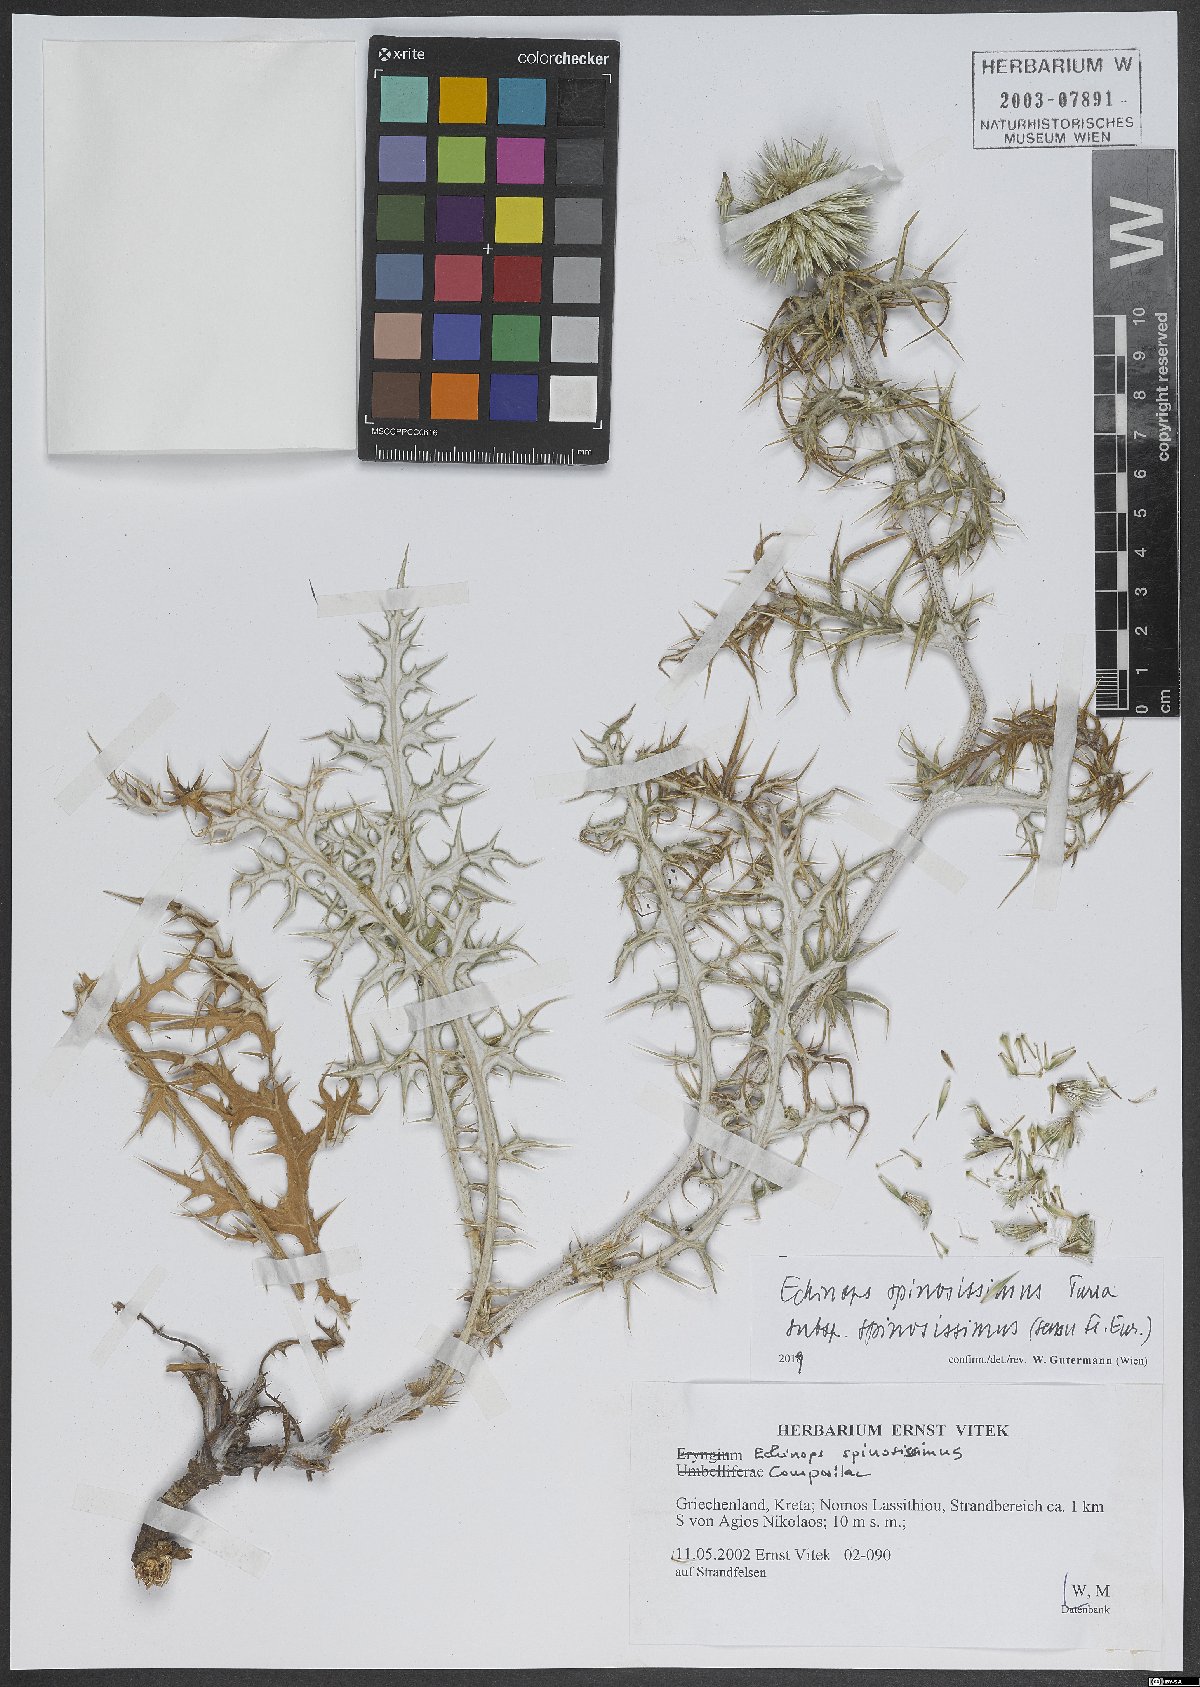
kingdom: Plantae
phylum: Tracheophyta
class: Magnoliopsida
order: Asterales
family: Asteraceae
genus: Echinops
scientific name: Echinops spinosissimus
